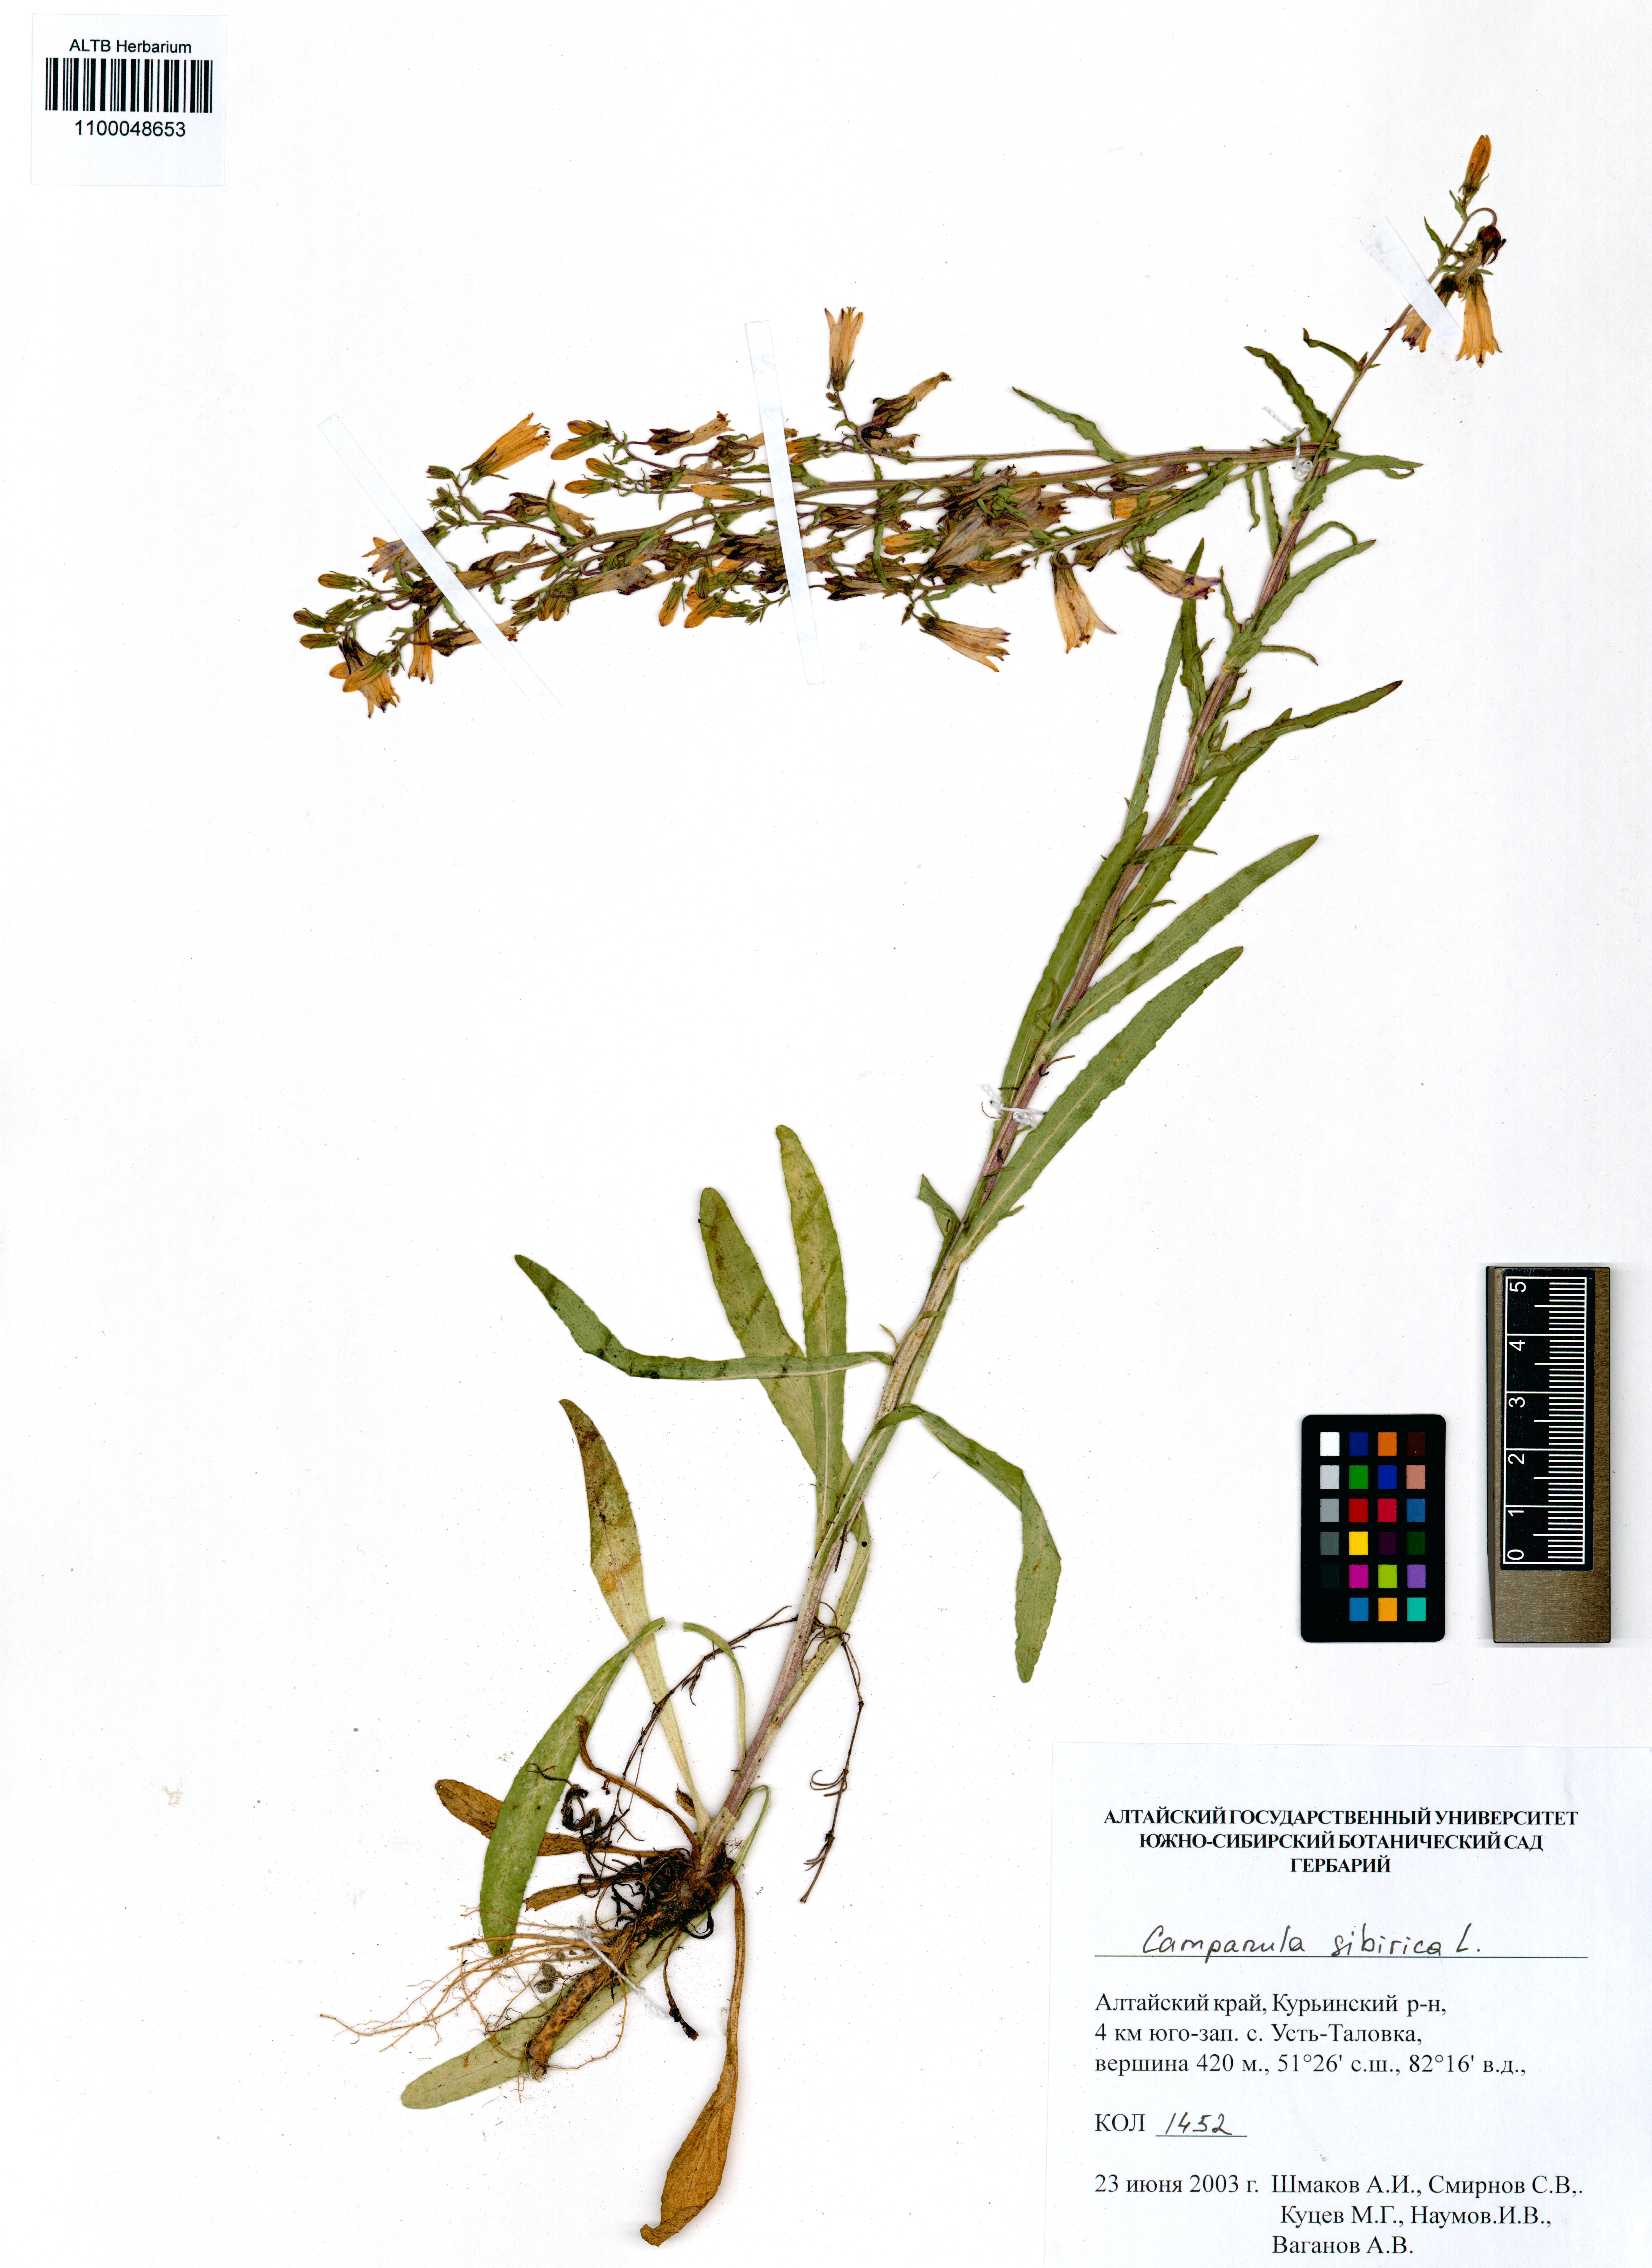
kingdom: Plantae
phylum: Tracheophyta
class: Magnoliopsida
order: Asterales
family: Campanulaceae
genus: Campanula
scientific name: Campanula sibirica
